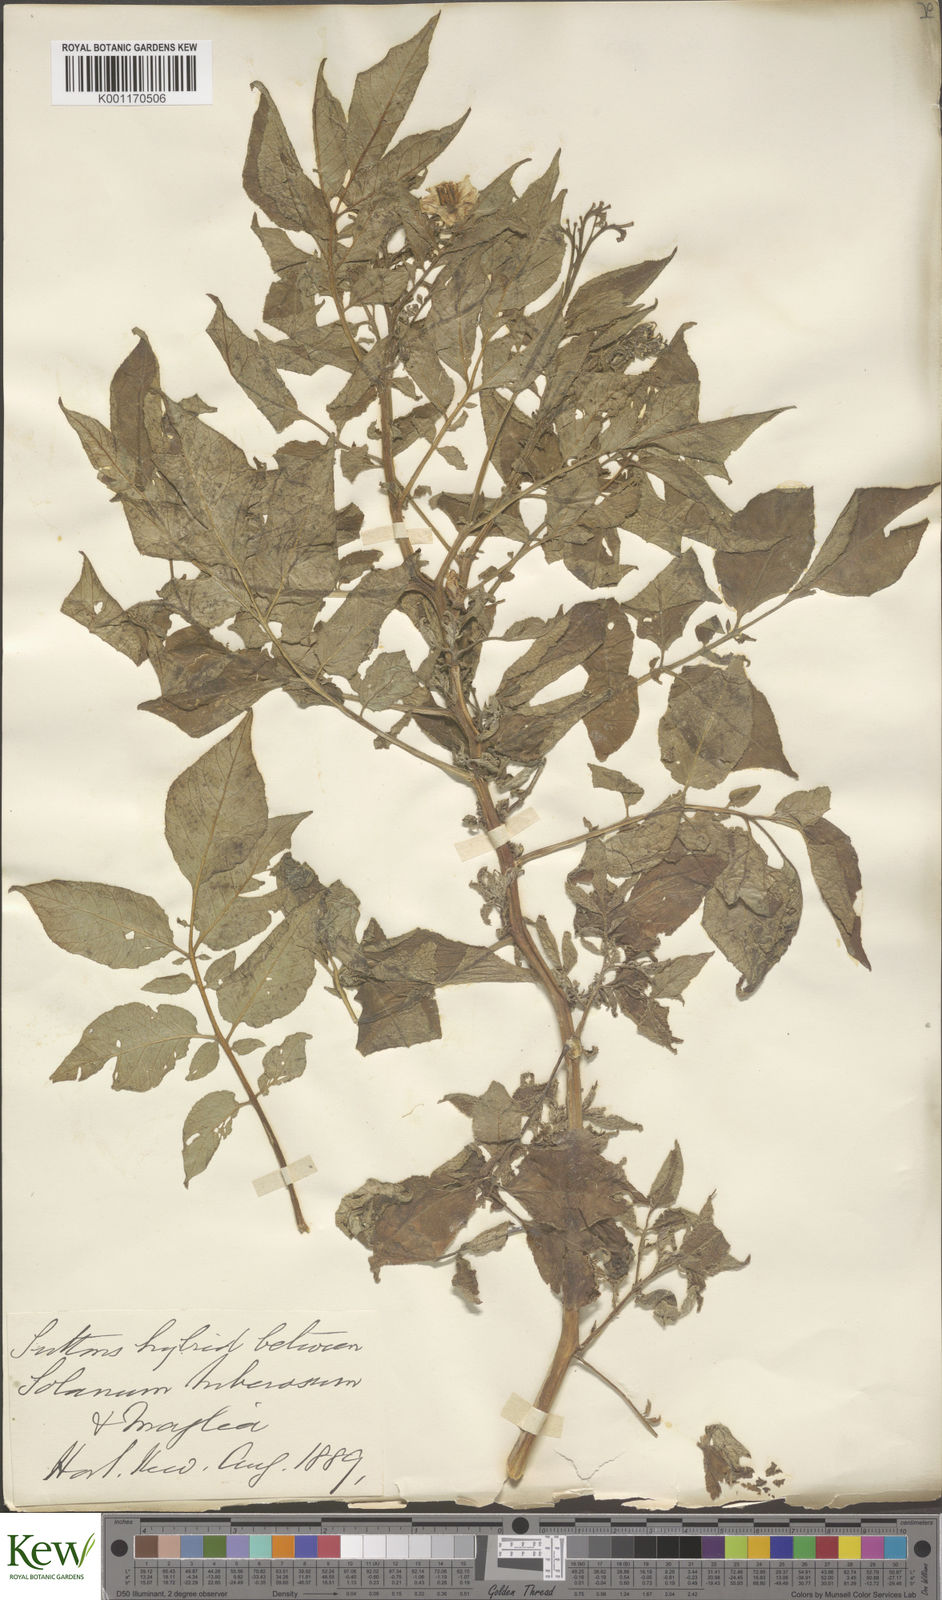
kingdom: Plantae
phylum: Tracheophyta
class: Magnoliopsida
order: Solanales
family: Solanaceae
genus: Solanum
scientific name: Solanum tuberosum
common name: Potato
